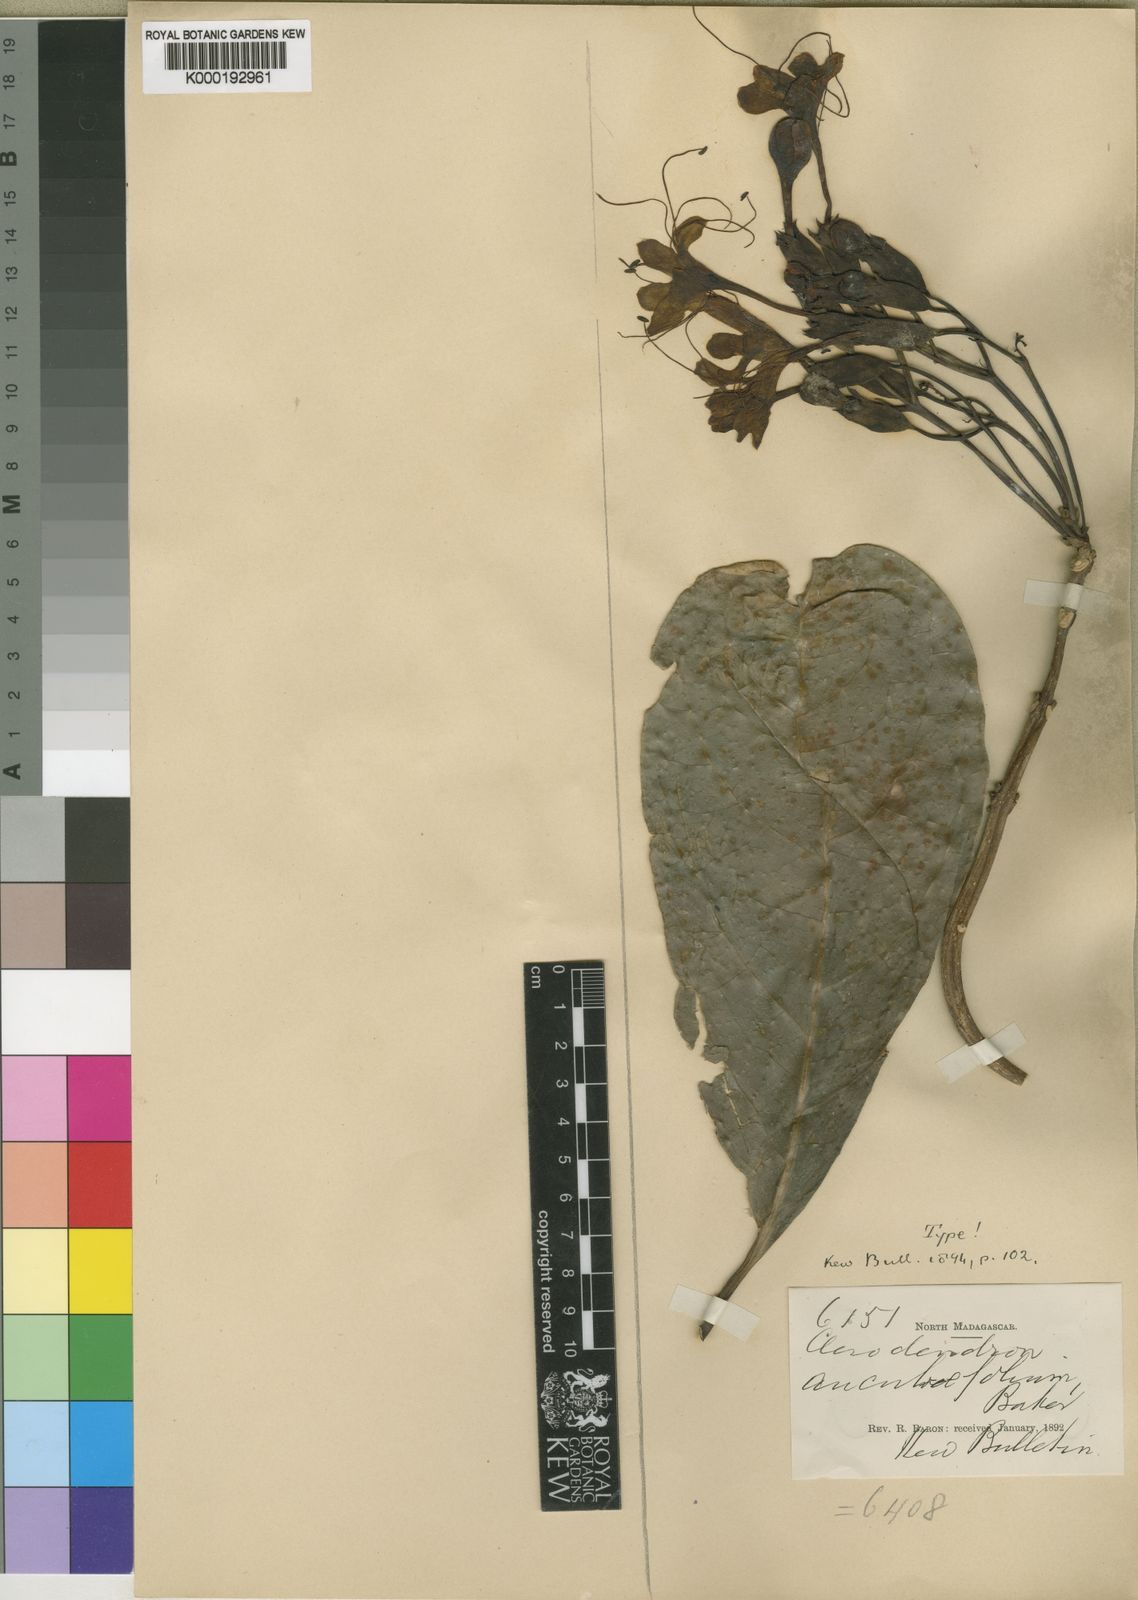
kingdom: Plantae
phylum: Tracheophyta
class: Magnoliopsida
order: Lamiales
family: Lamiaceae
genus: Clerodendrum
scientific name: Clerodendrum aucubifolium
